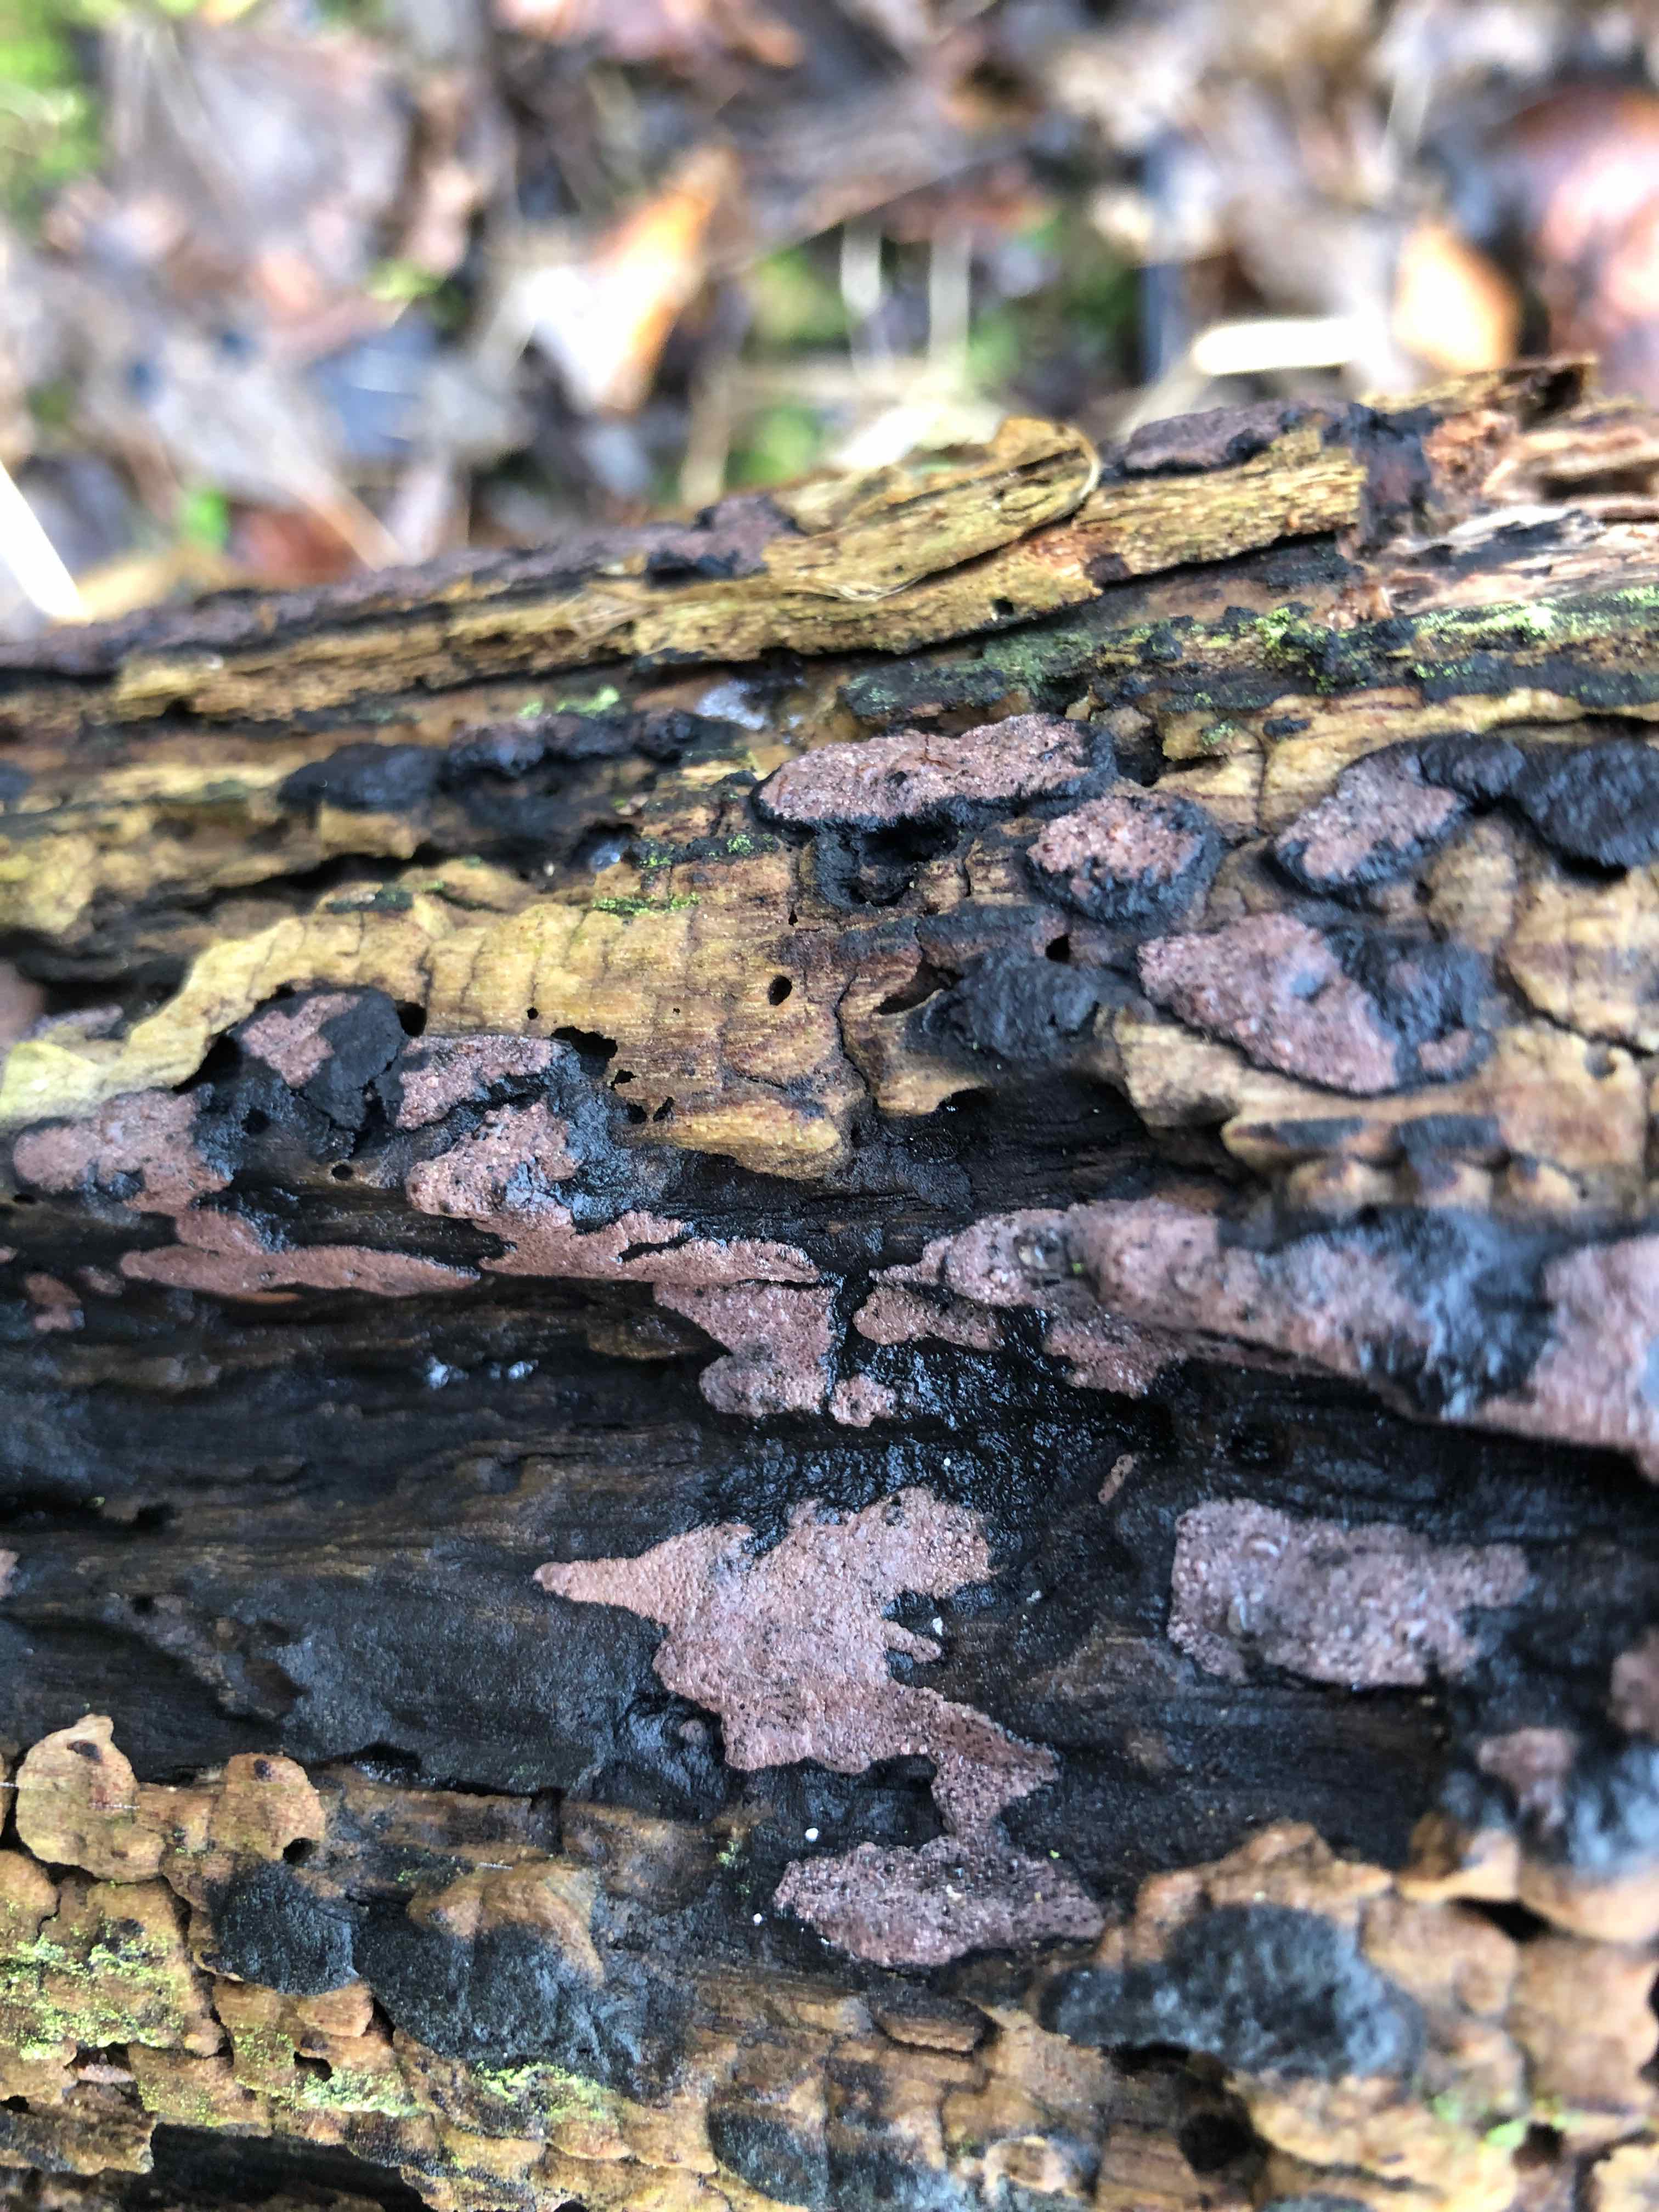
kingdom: Fungi
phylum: Ascomycota
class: Sordariomycetes
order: Xylariales
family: Hypoxylaceae
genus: Hypoxylon
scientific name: Hypoxylon petriniae
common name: nedsænket kulbær
